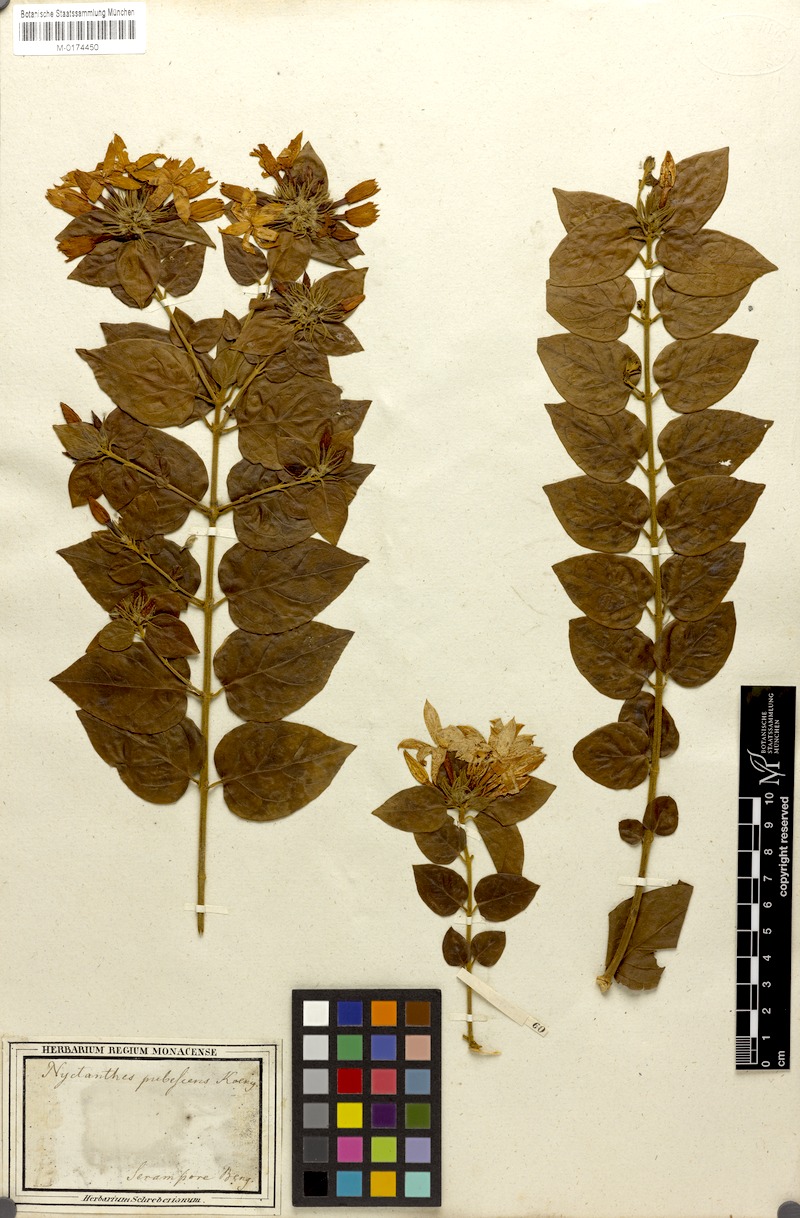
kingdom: Plantae
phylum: Tracheophyta
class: Magnoliopsida
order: Lamiales
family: Oleaceae
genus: Jasminum
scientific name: Jasminum multiflorum
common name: Star jasmine
